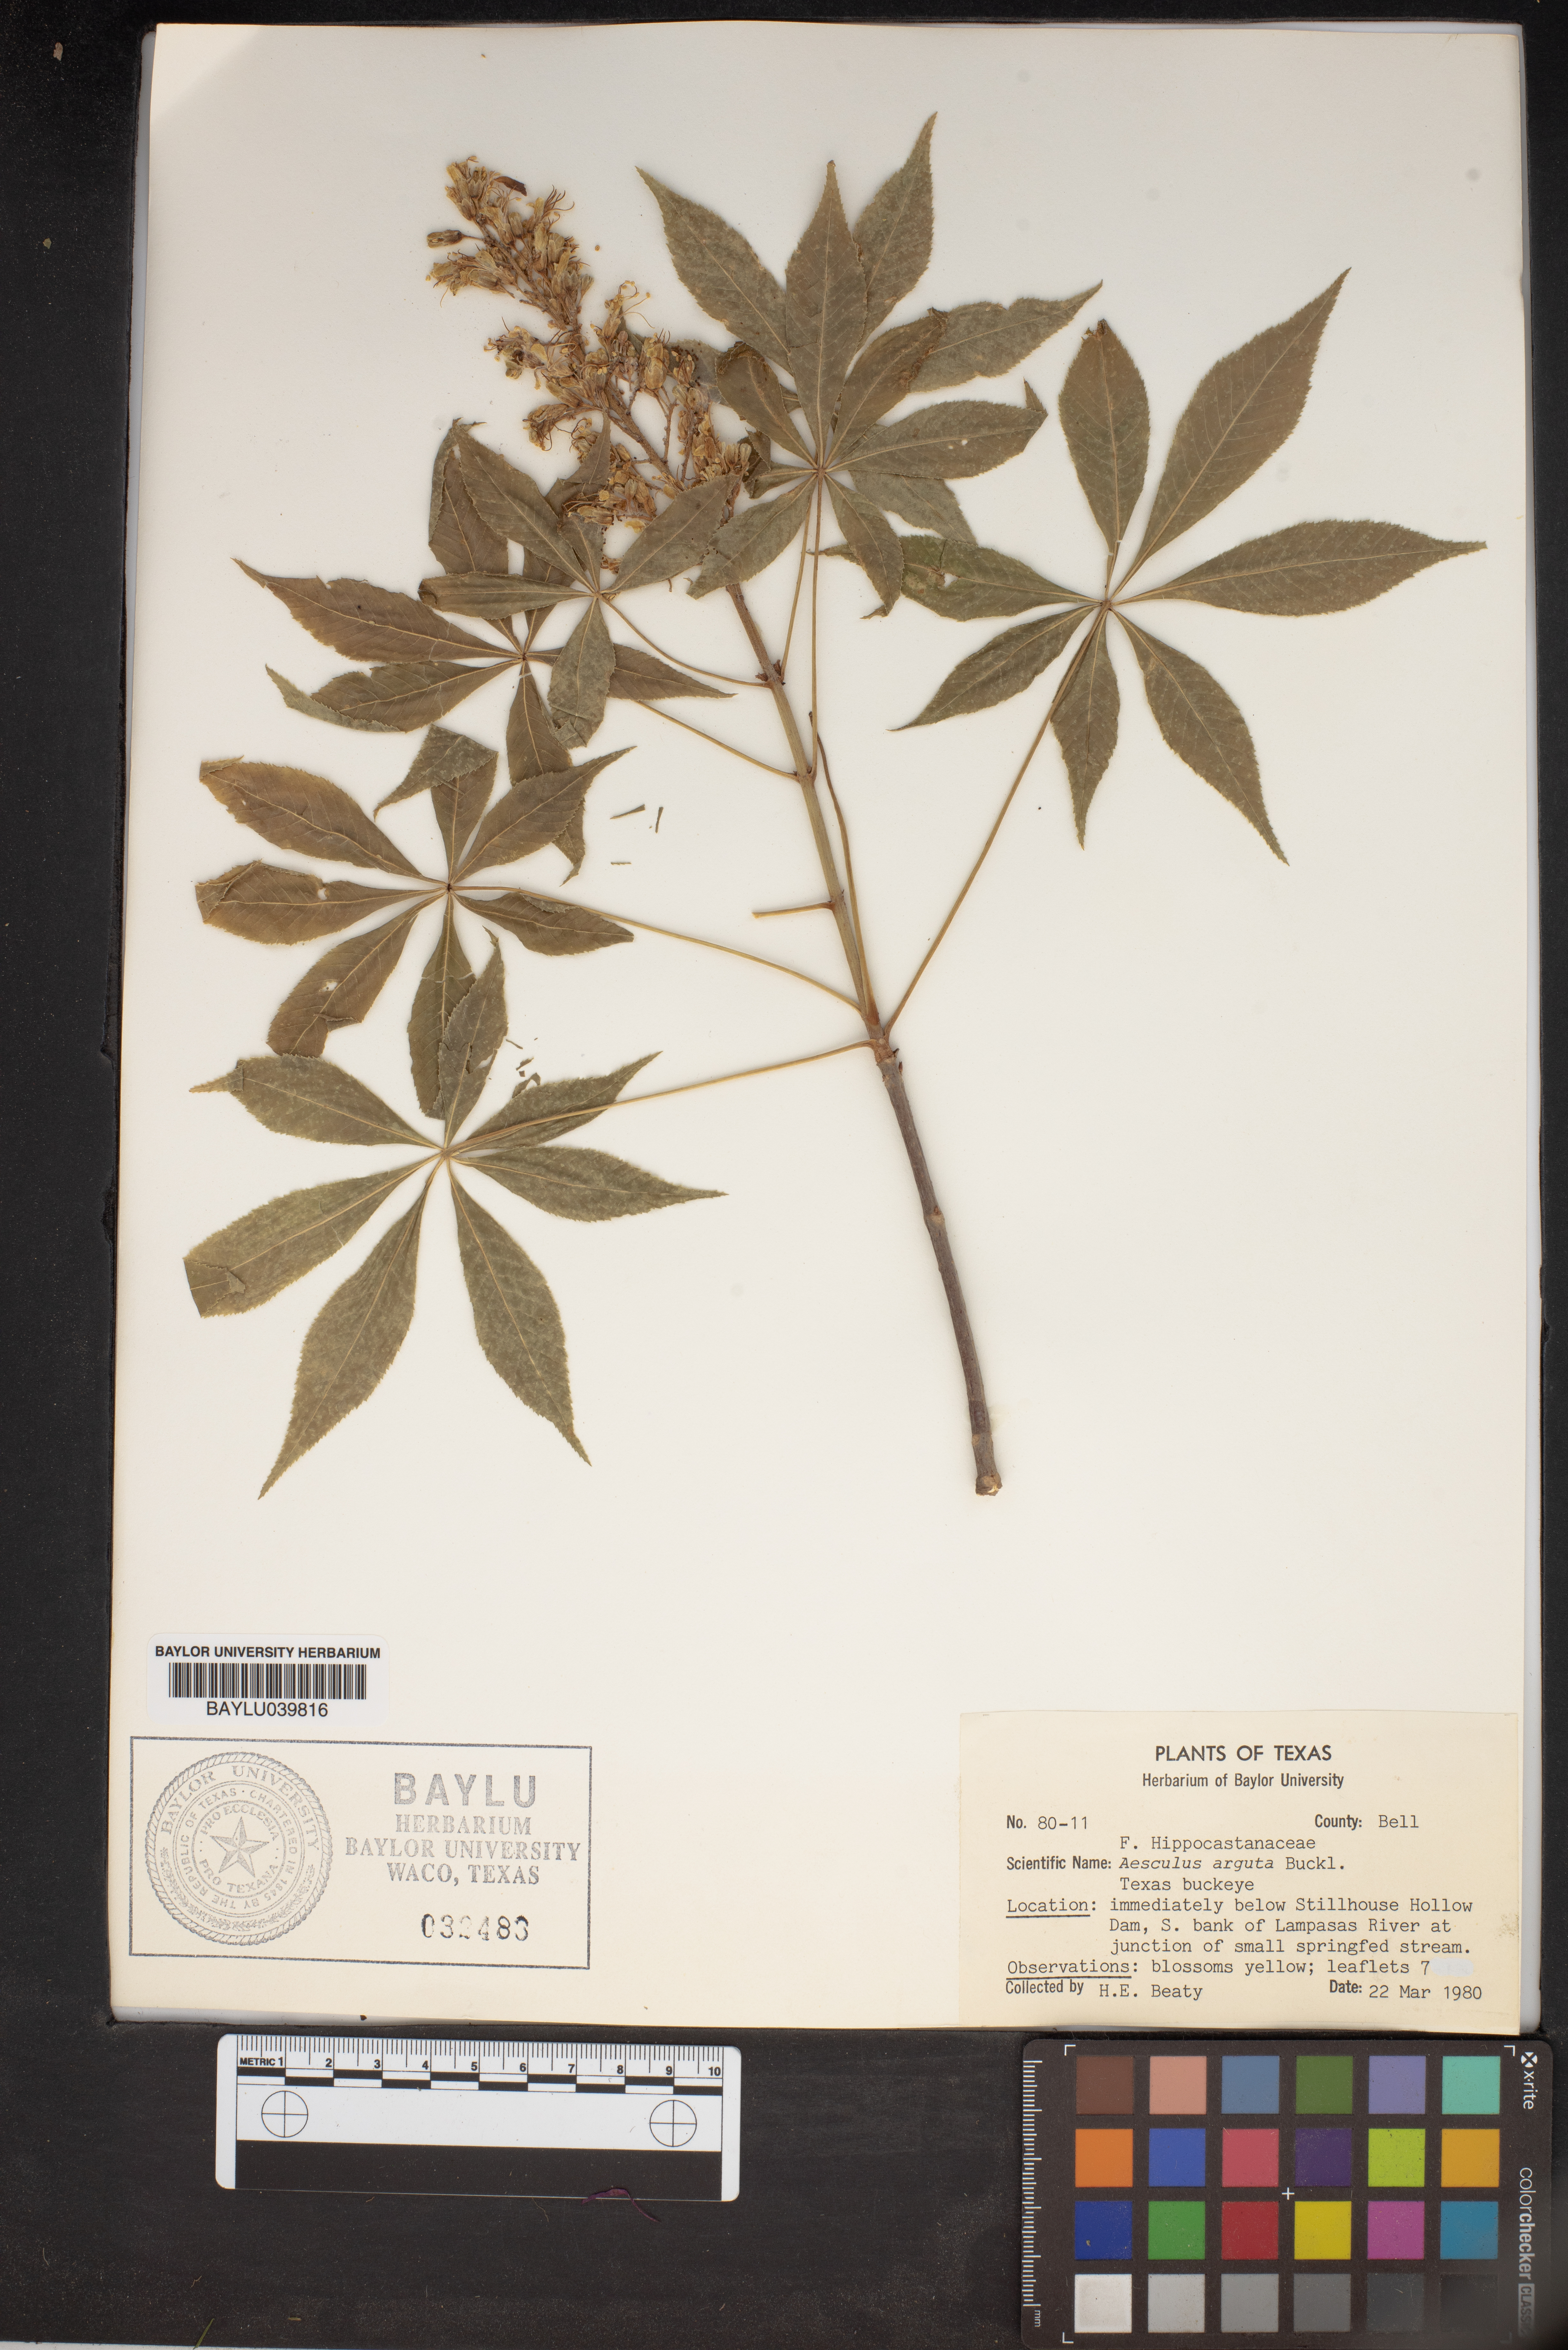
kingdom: Plantae
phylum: Tracheophyta
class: Magnoliopsida
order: Sapindales
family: Sapindaceae
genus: Aesculus
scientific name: Aesculus glabra
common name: Ohio buckeye
